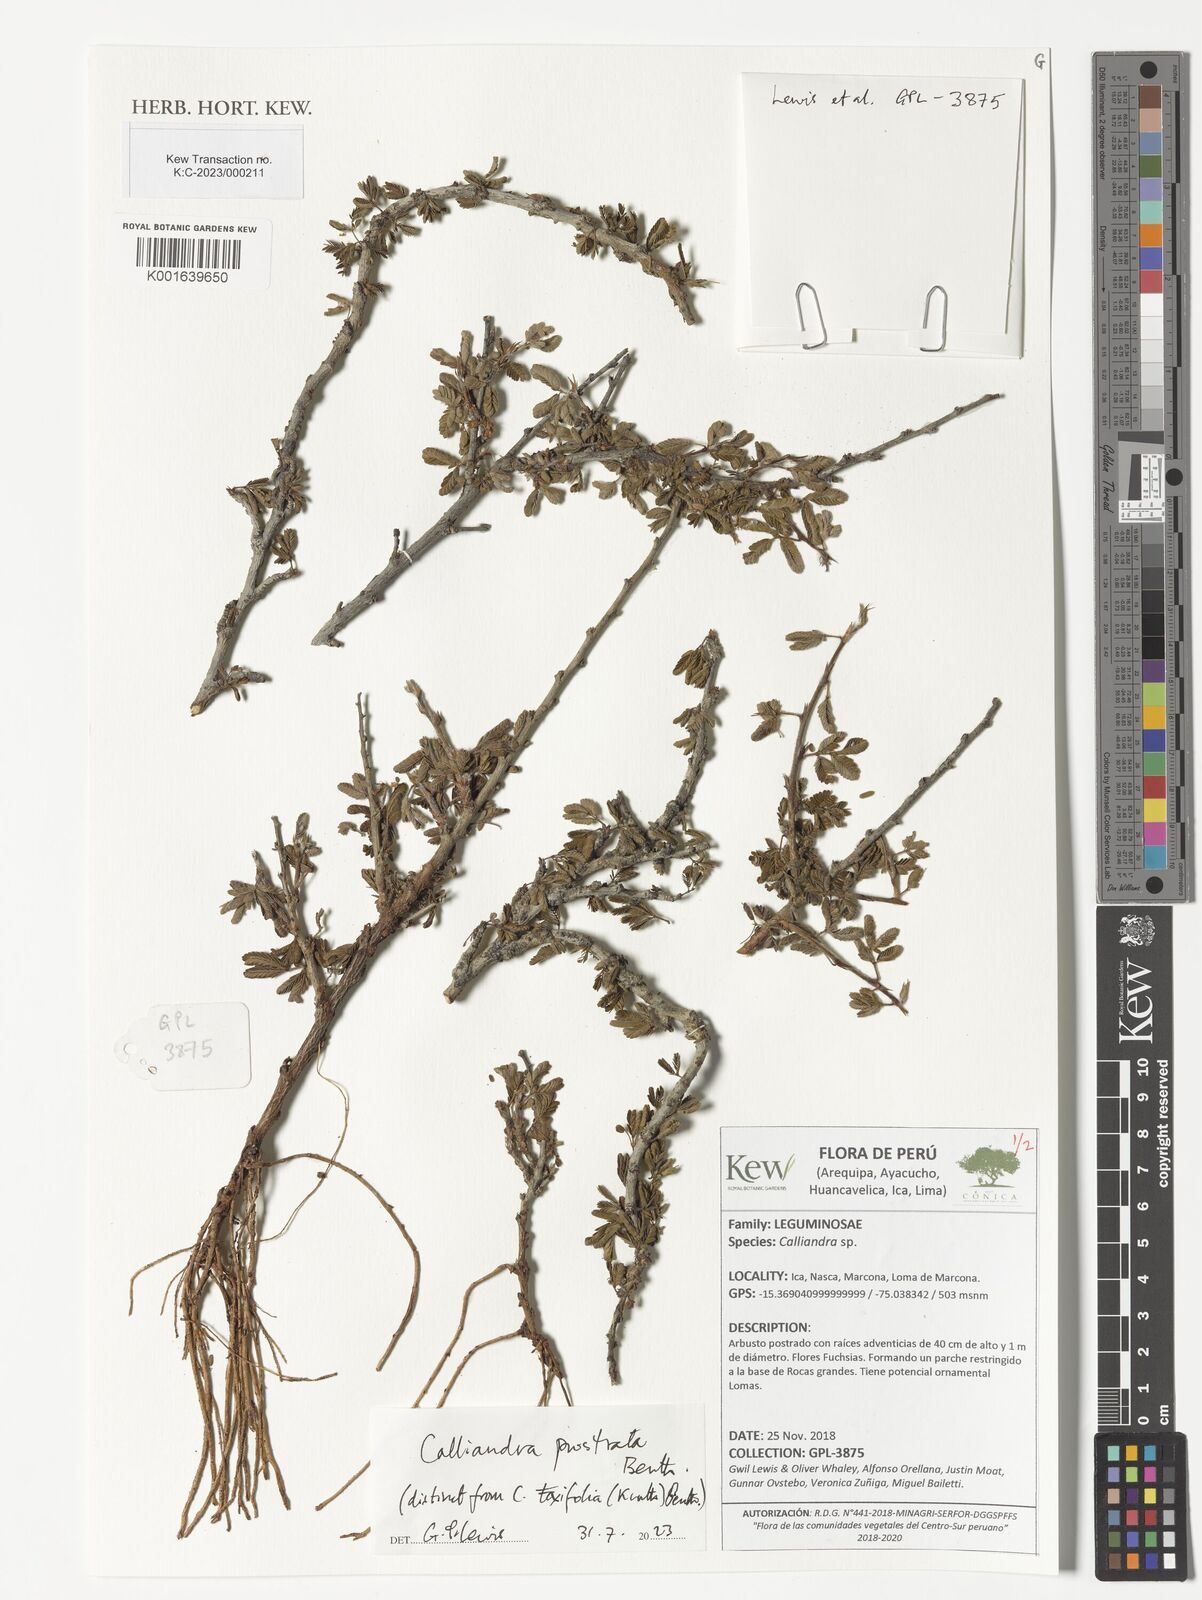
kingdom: Plantae
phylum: Tracheophyta
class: Magnoliopsida
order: Fabales
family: Fabaceae
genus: Calliandra
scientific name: Calliandra taxifolia
